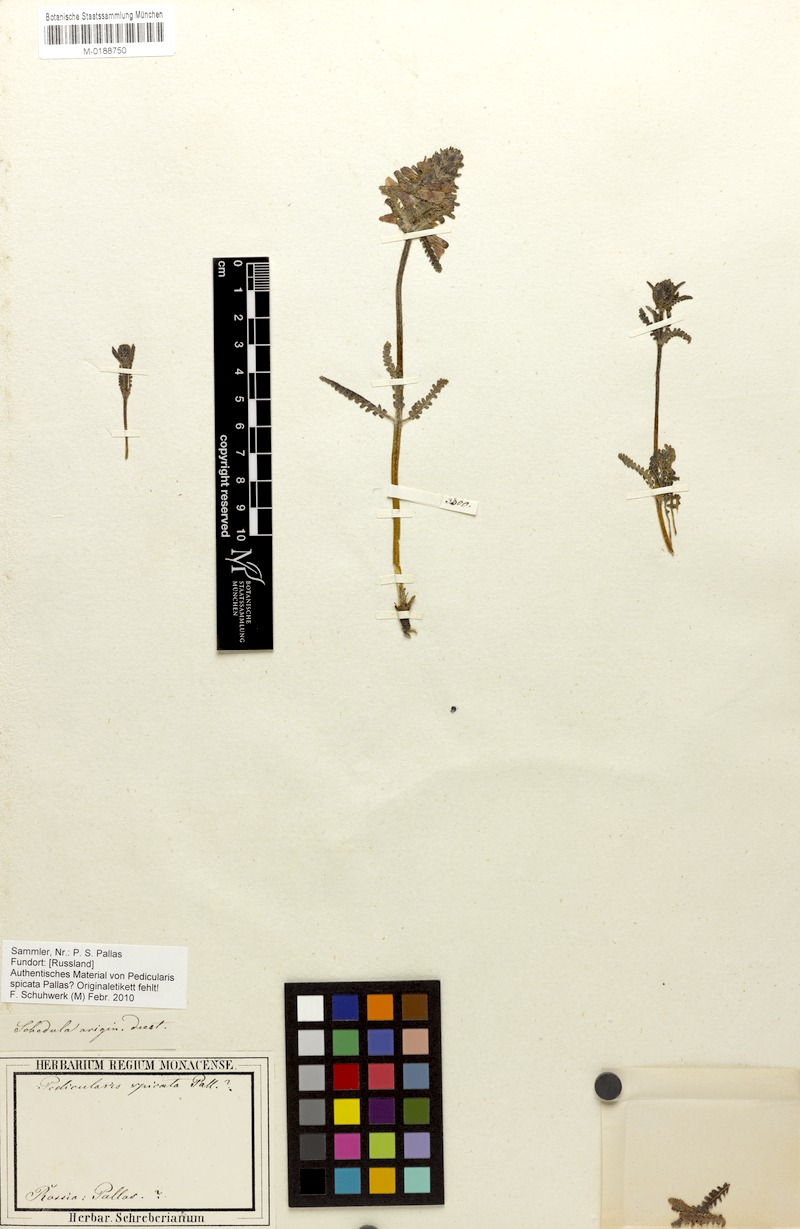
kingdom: Plantae
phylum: Tracheophyta
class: Magnoliopsida
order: Lamiales
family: Orobanchaceae
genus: Pedicularis
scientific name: Pedicularis spicata
